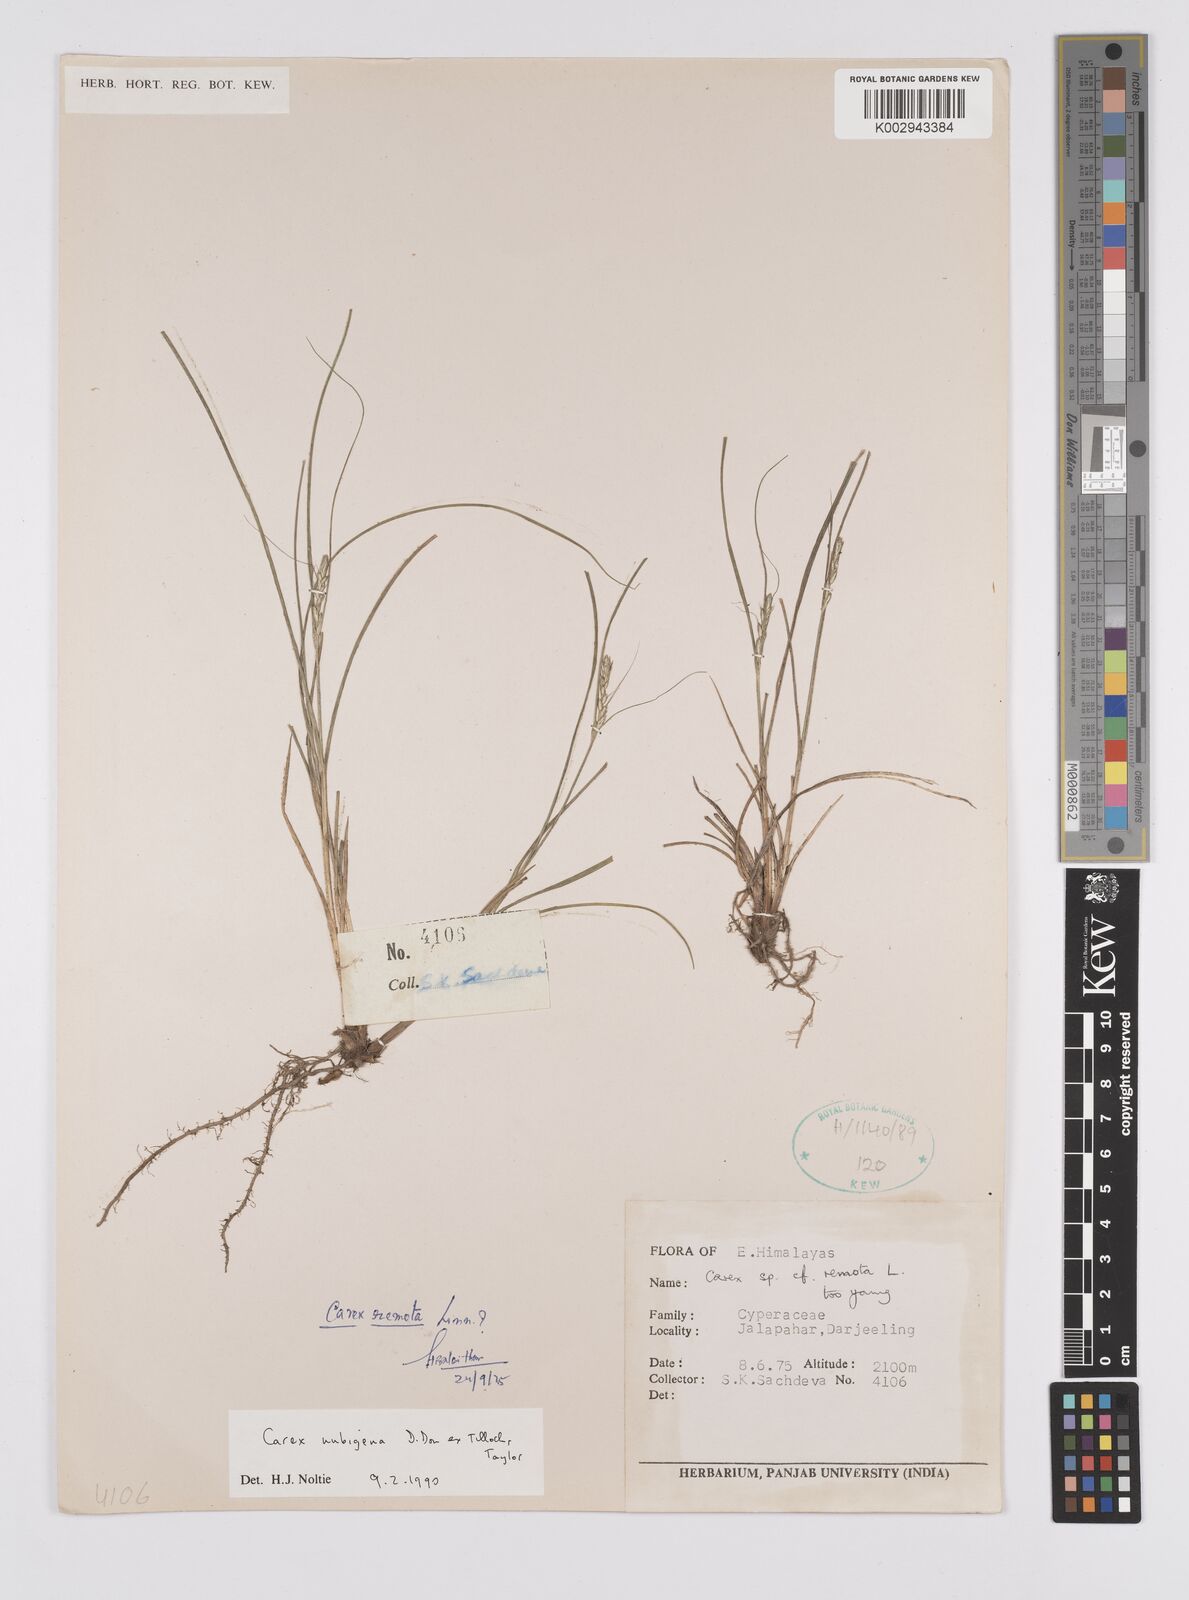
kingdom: Plantae
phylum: Tracheophyta
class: Liliopsida
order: Poales
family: Cyperaceae
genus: Carex
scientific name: Carex nubigena
